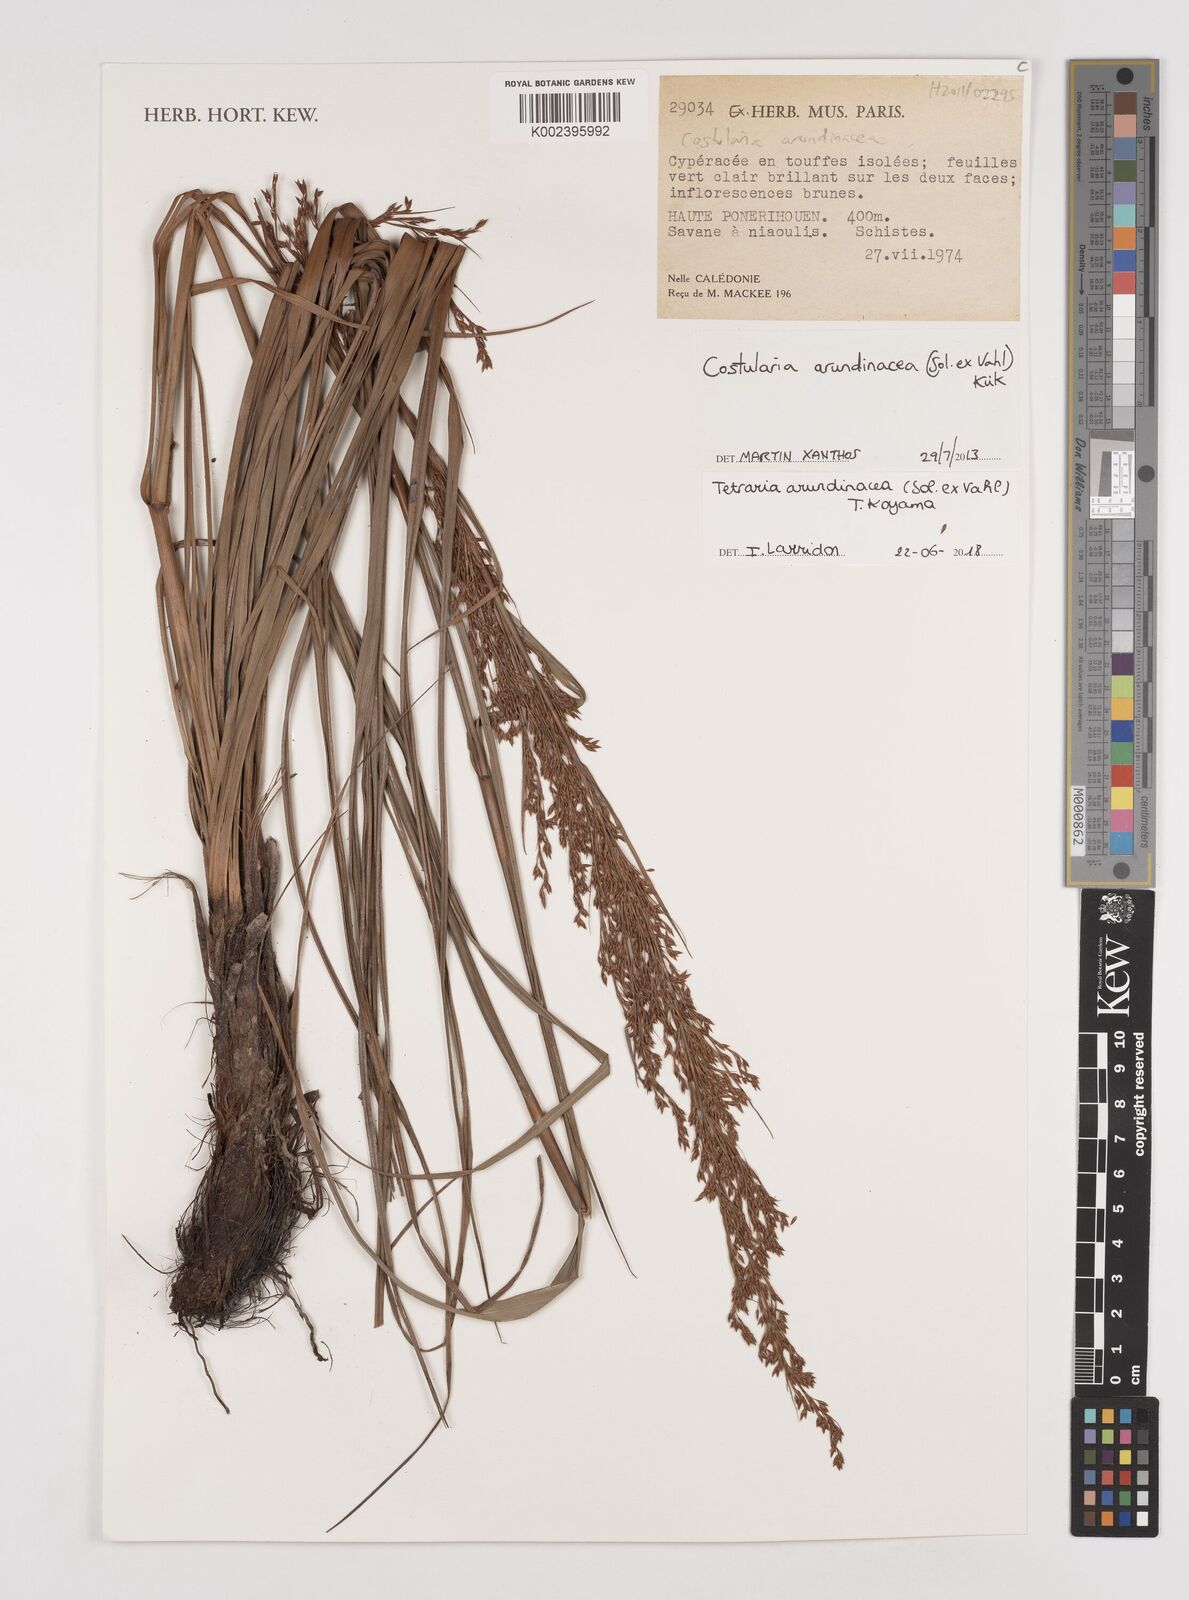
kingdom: Plantae
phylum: Tracheophyta
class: Liliopsida
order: Poales
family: Cyperaceae
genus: Tetraria
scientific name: Tetraria arundinacea
